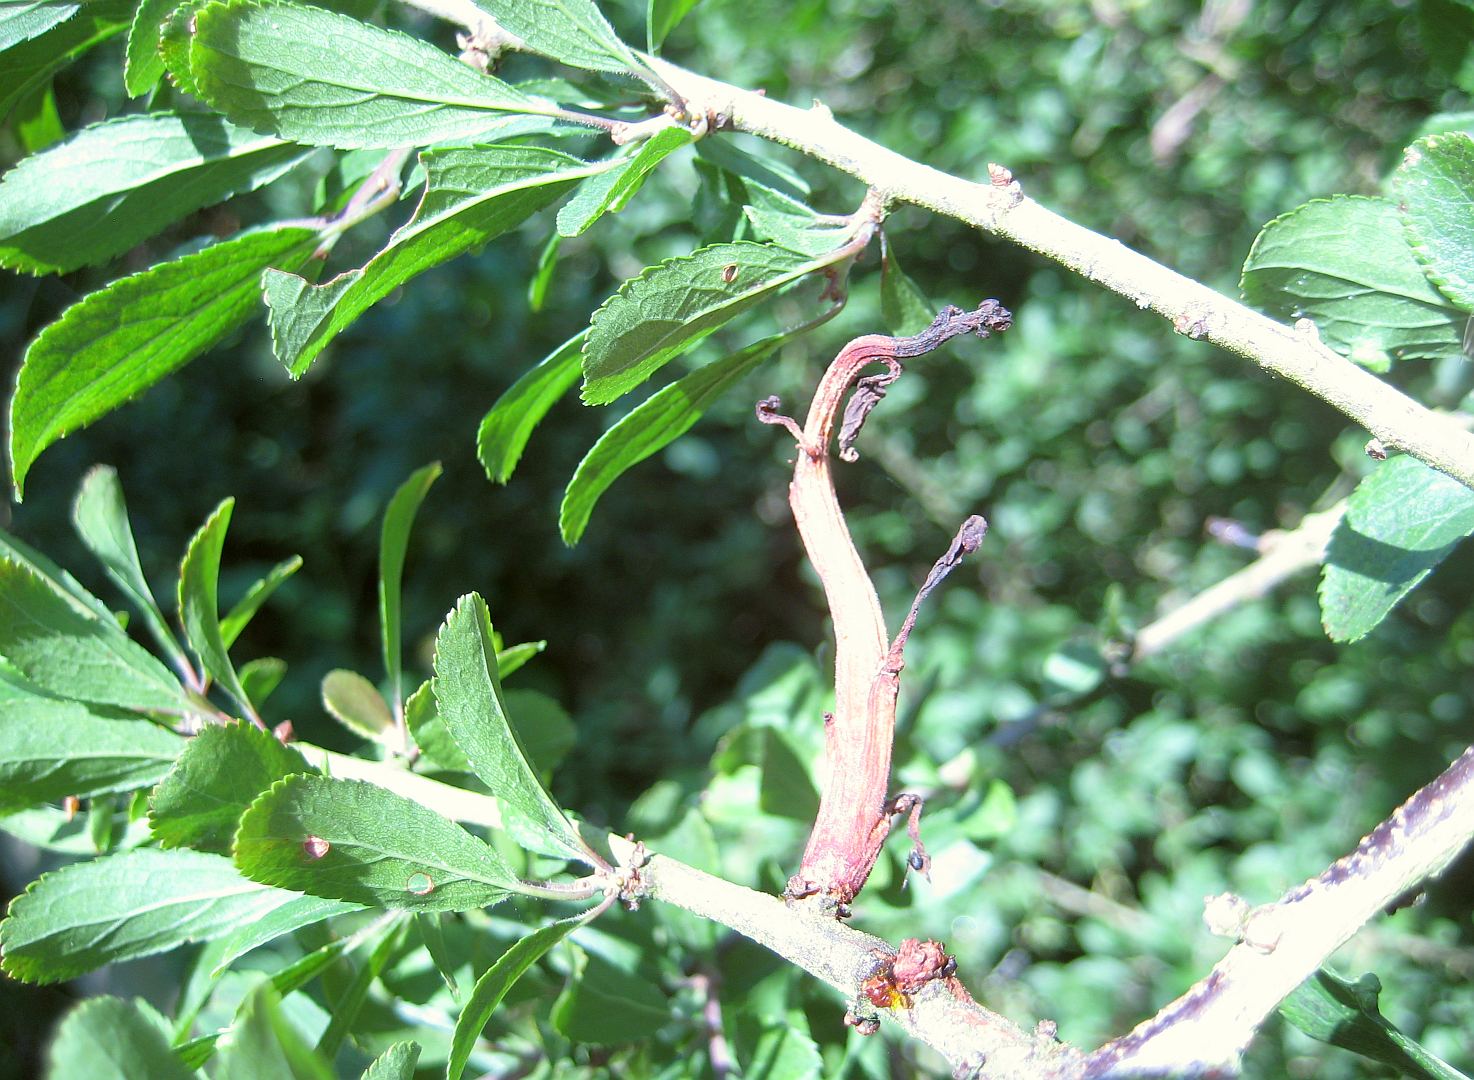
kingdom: Fungi
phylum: Ascomycota
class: Taphrinomycetes
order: Taphrinales
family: Taphrinaceae
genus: Taphrina
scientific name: Taphrina pruni
